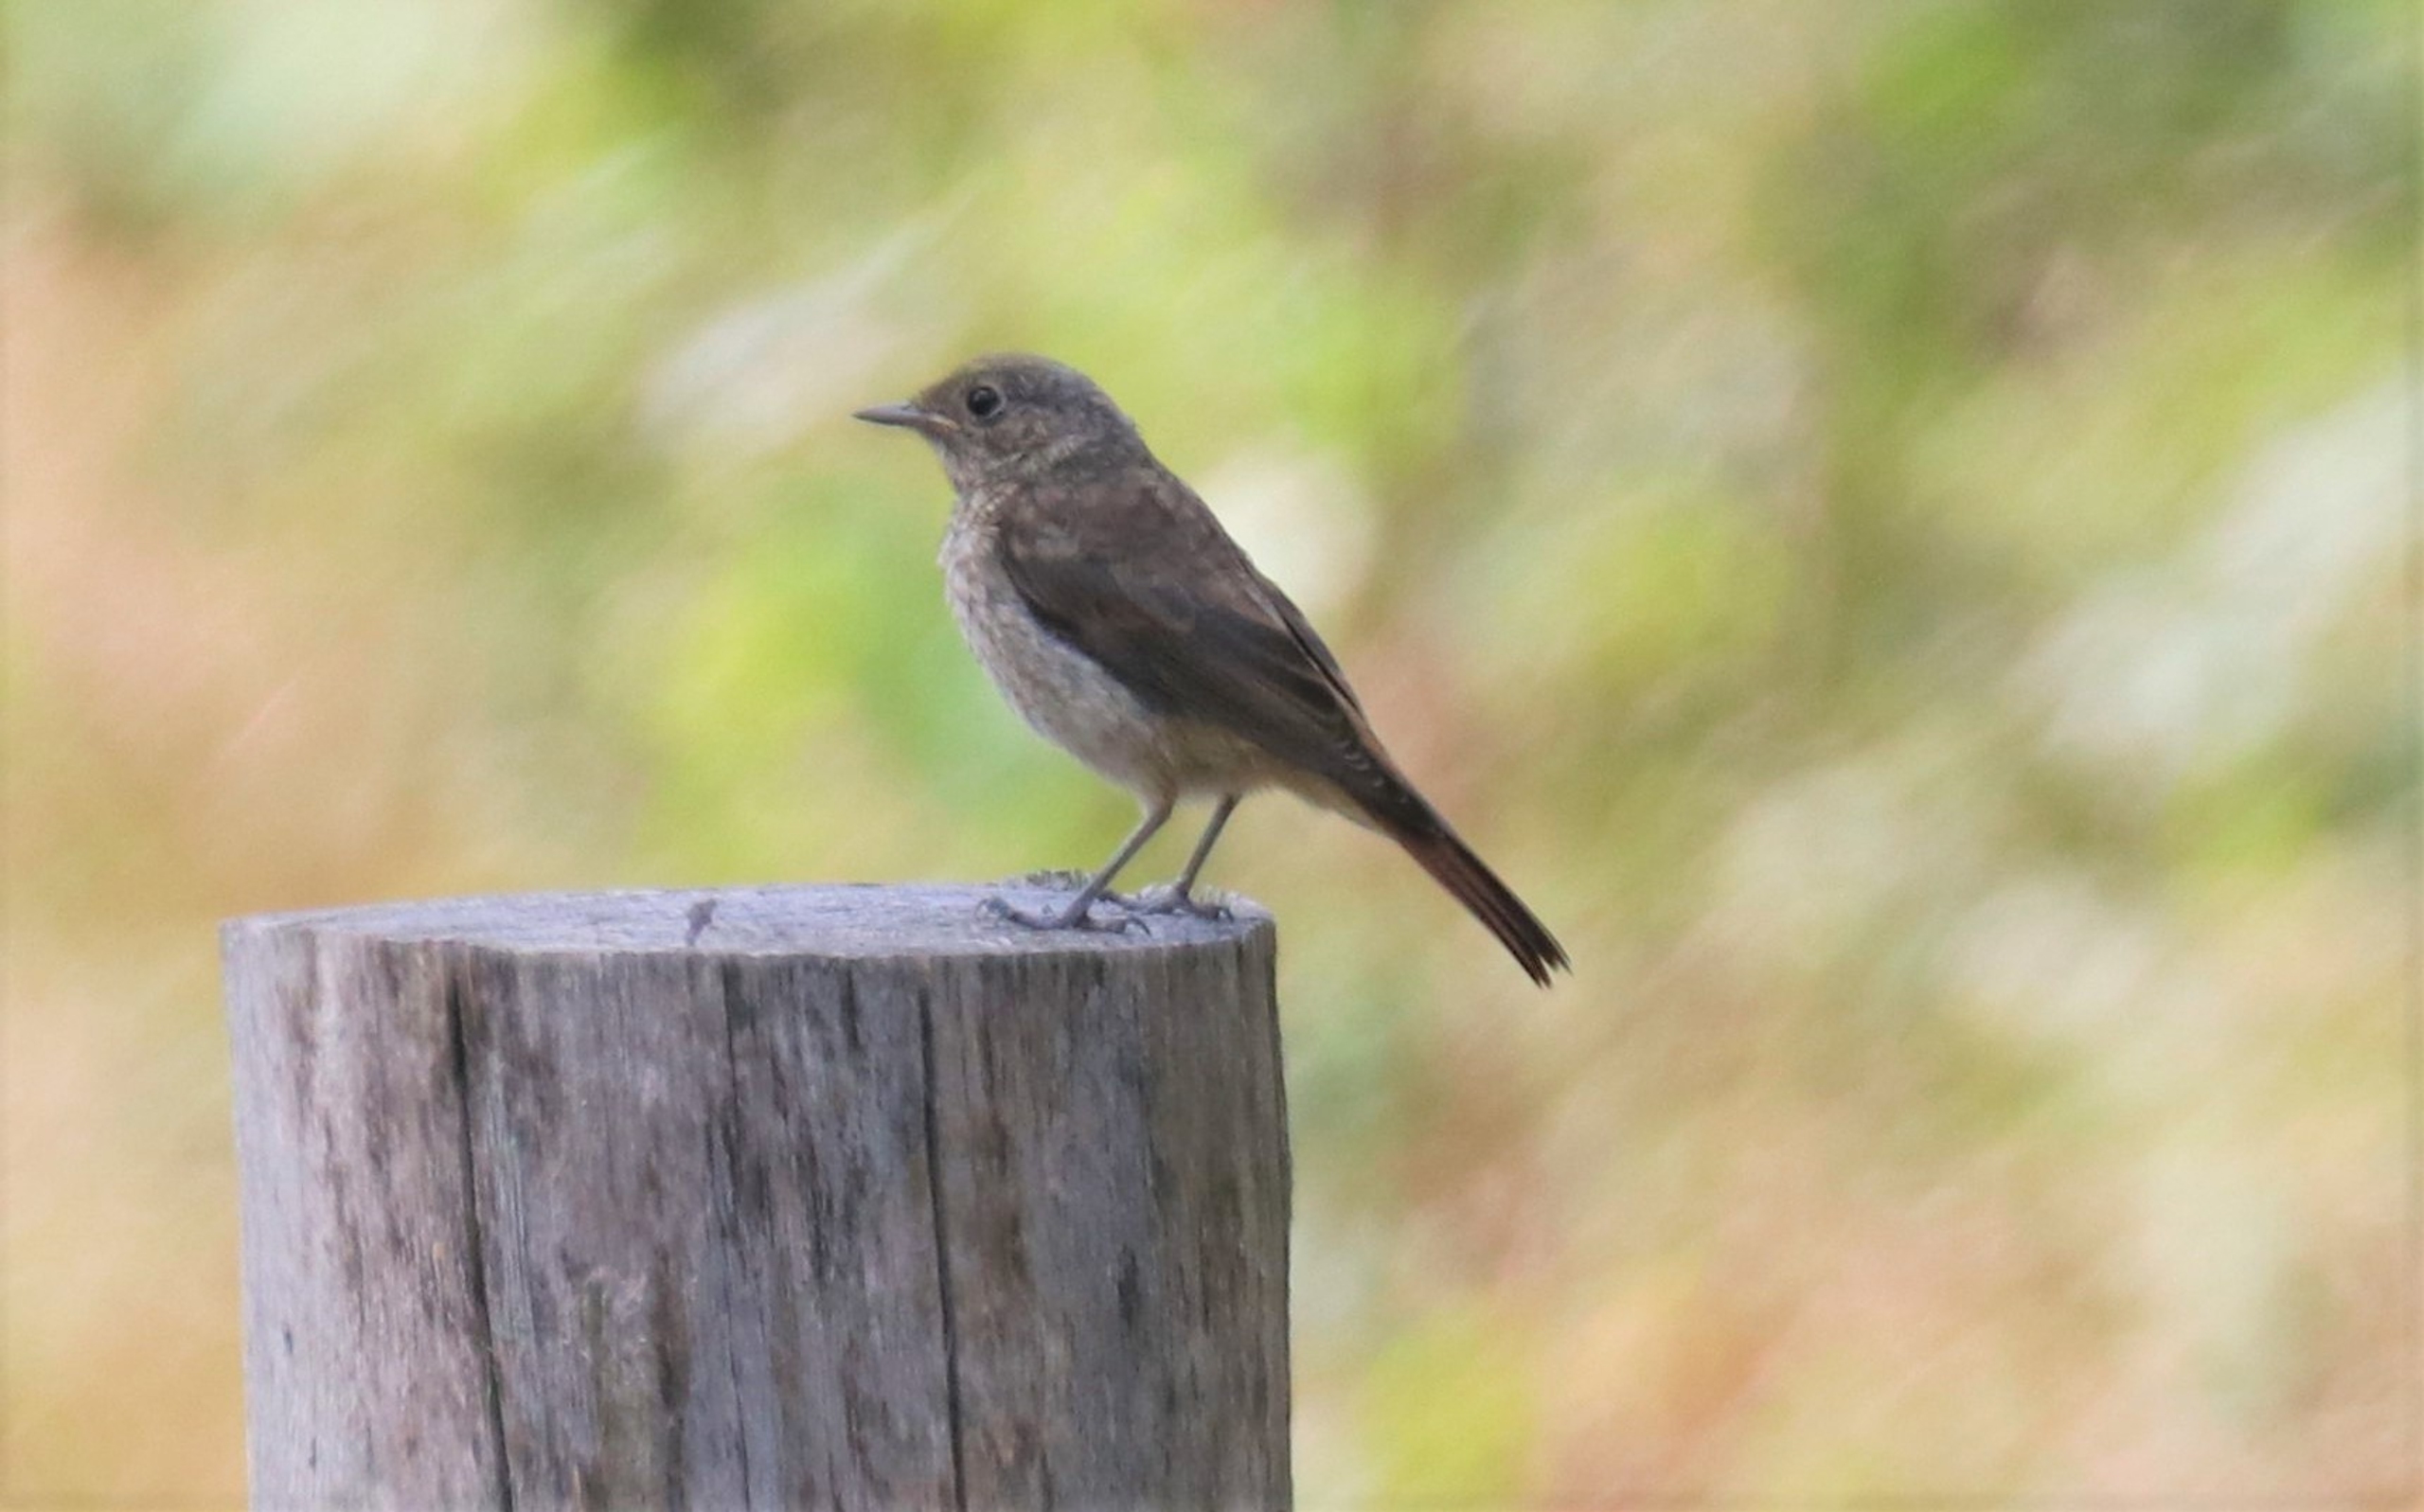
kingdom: Animalia
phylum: Chordata
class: Aves
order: Passeriformes
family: Muscicapidae
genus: Phoenicurus
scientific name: Phoenicurus ochruros
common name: Husrødstjert
